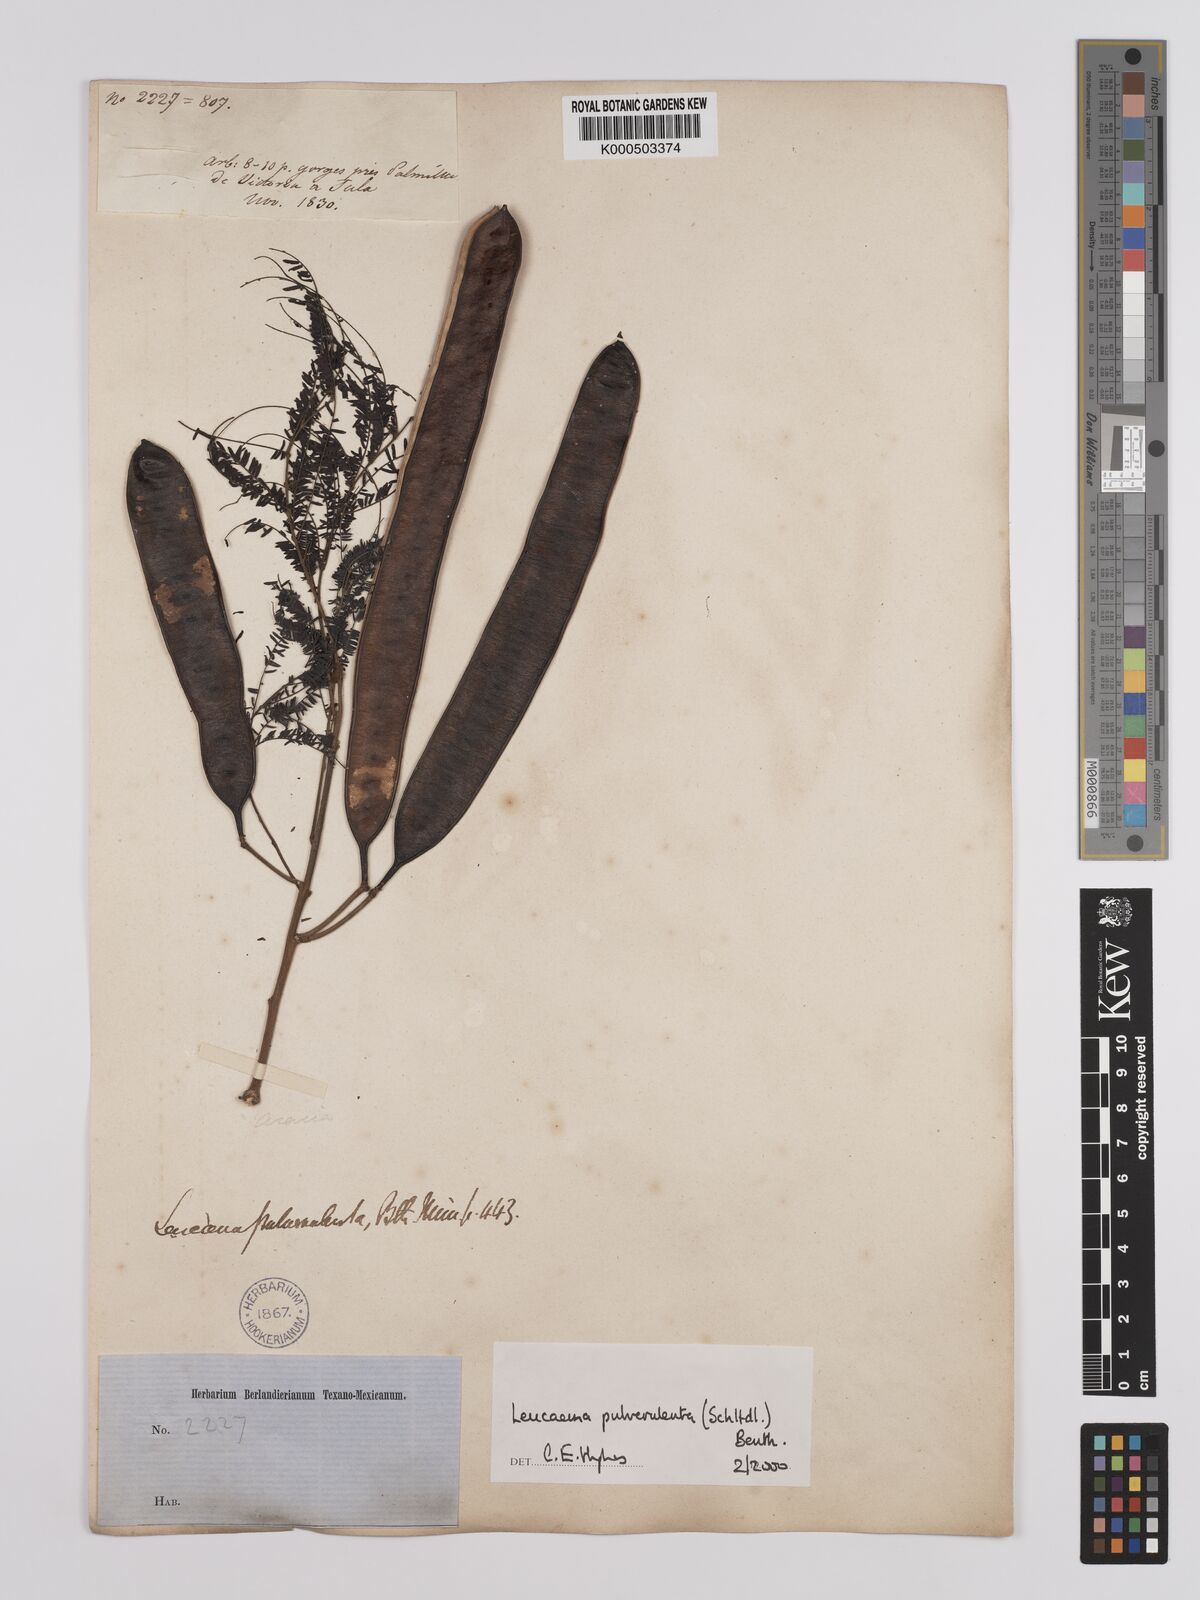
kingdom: Plantae
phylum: Tracheophyta
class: Magnoliopsida
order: Fabales
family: Fabaceae
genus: Leucaena
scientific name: Leucaena pulverulenta
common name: Great leadtree
